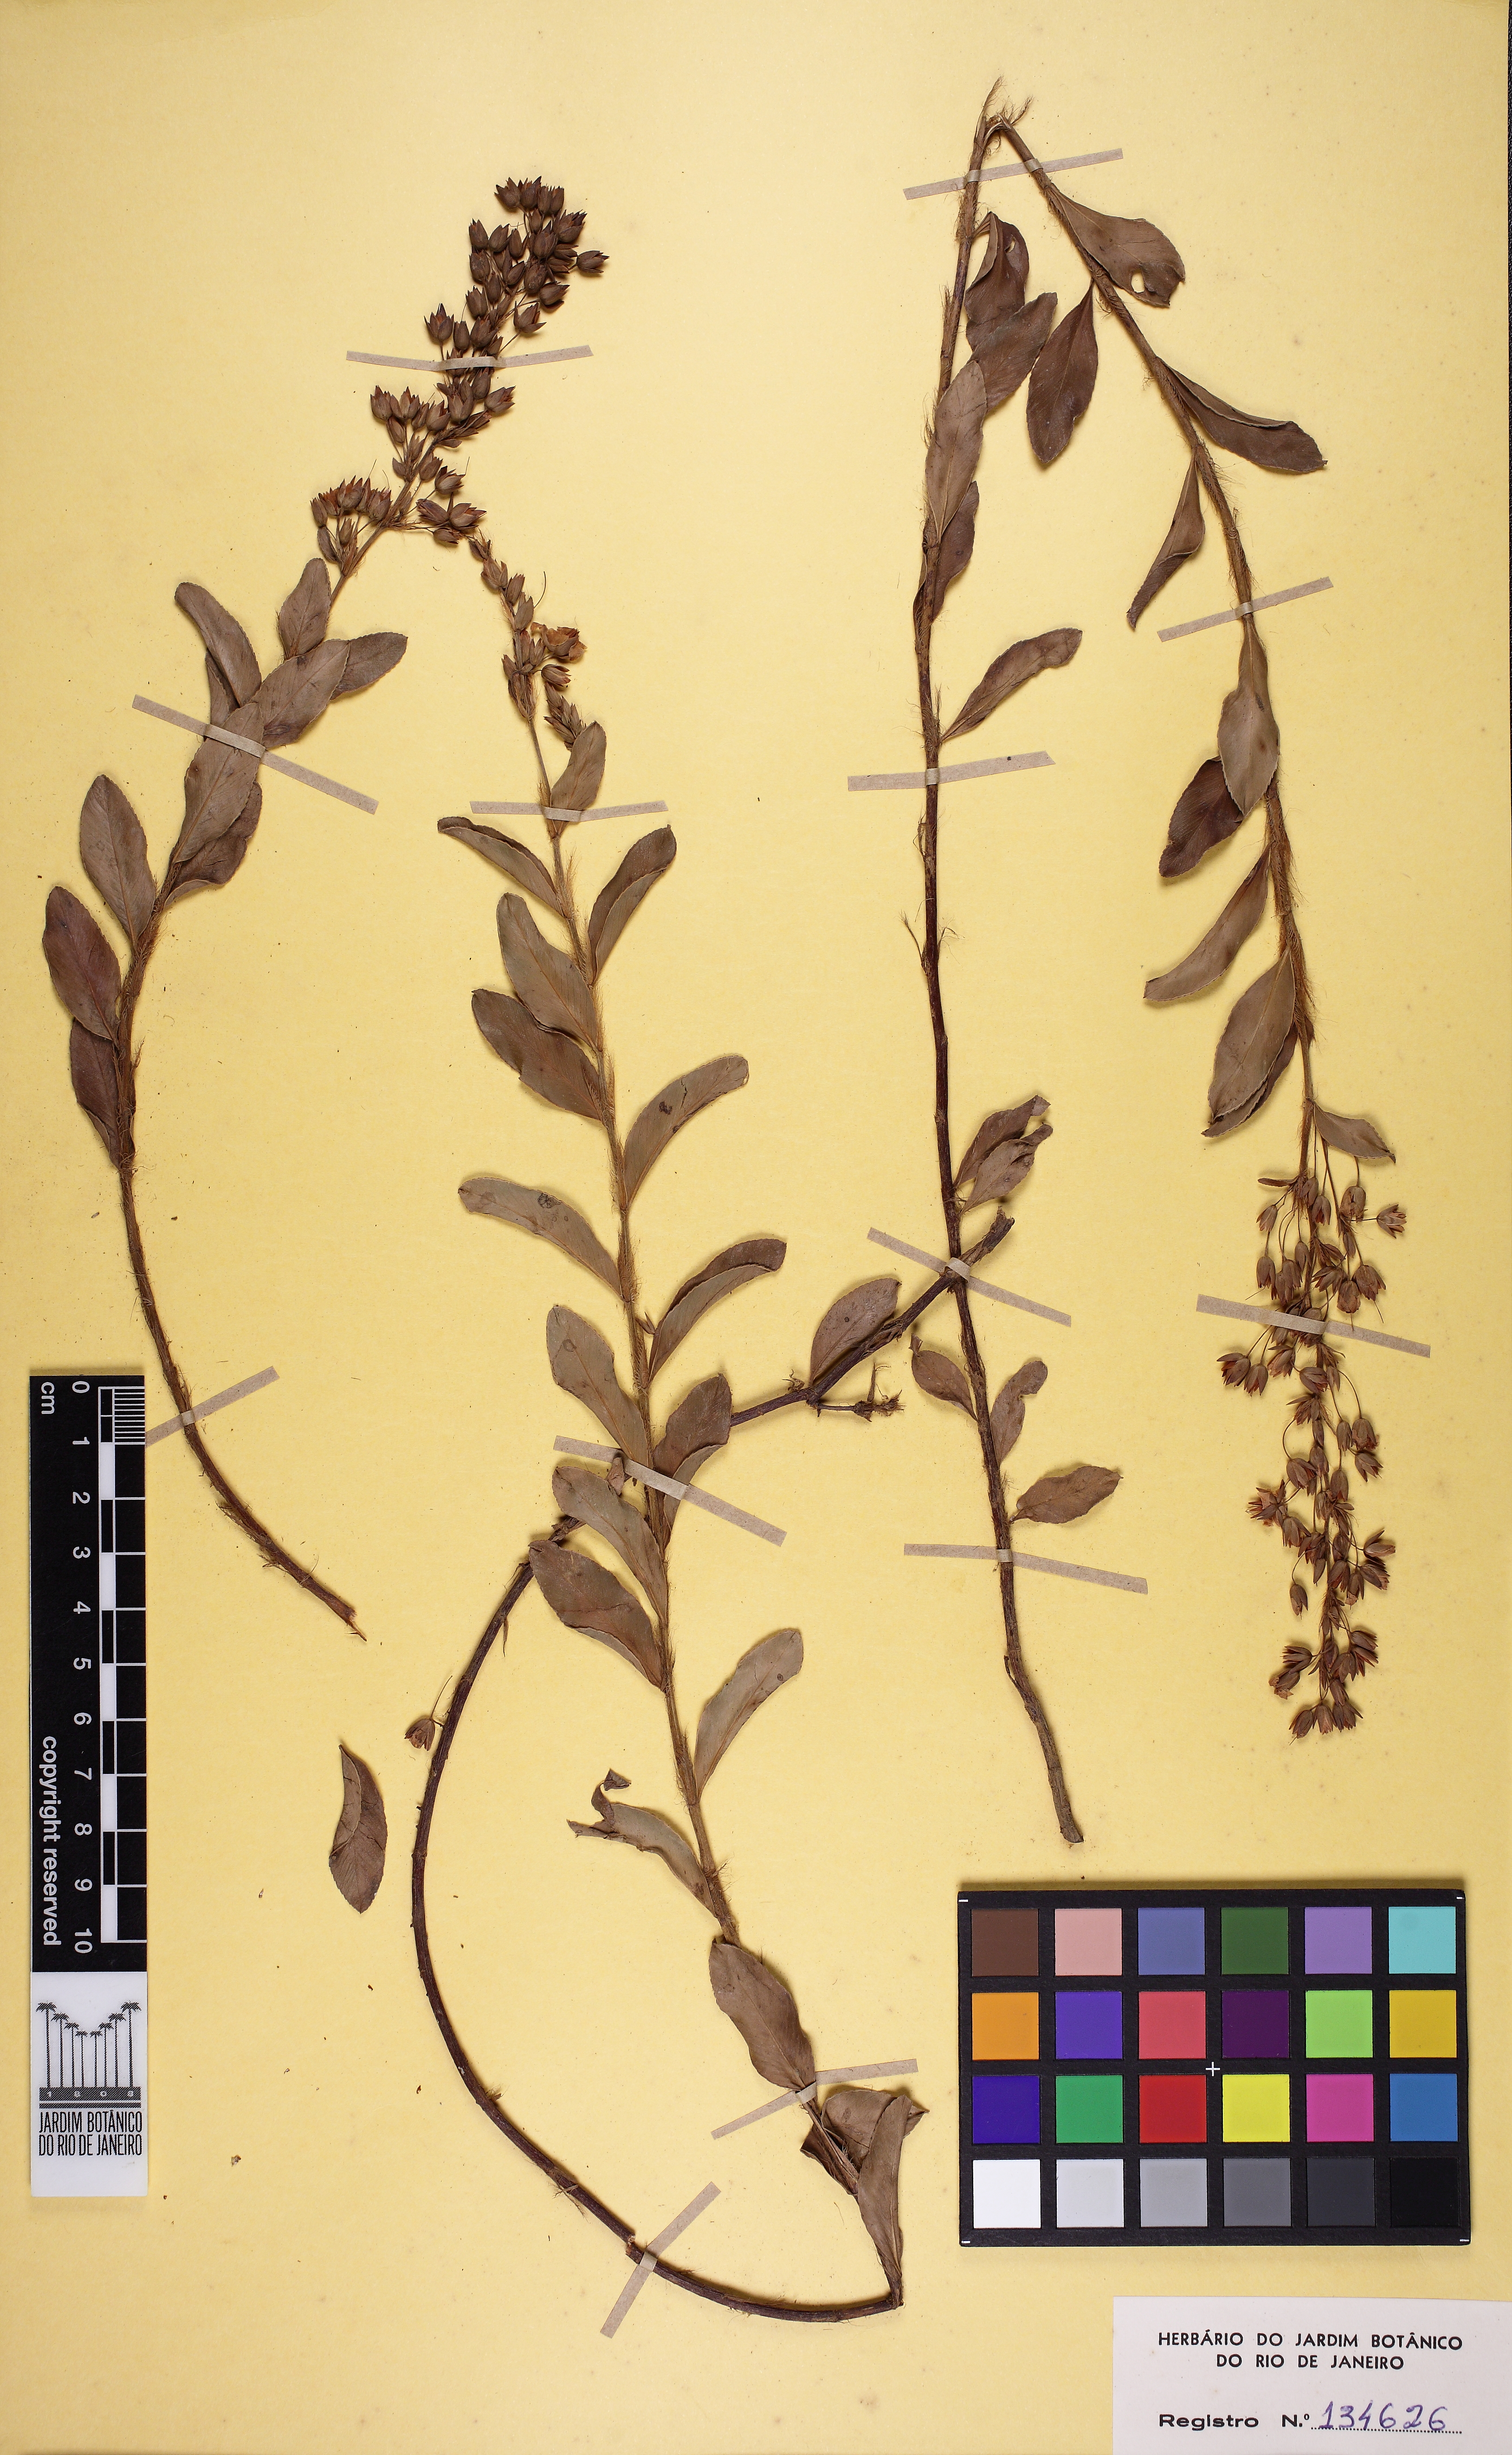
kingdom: Plantae
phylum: Tracheophyta
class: Magnoliopsida
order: Malpighiales
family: Ochnaceae
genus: Sauvagesia
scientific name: Sauvagesia racemosa
